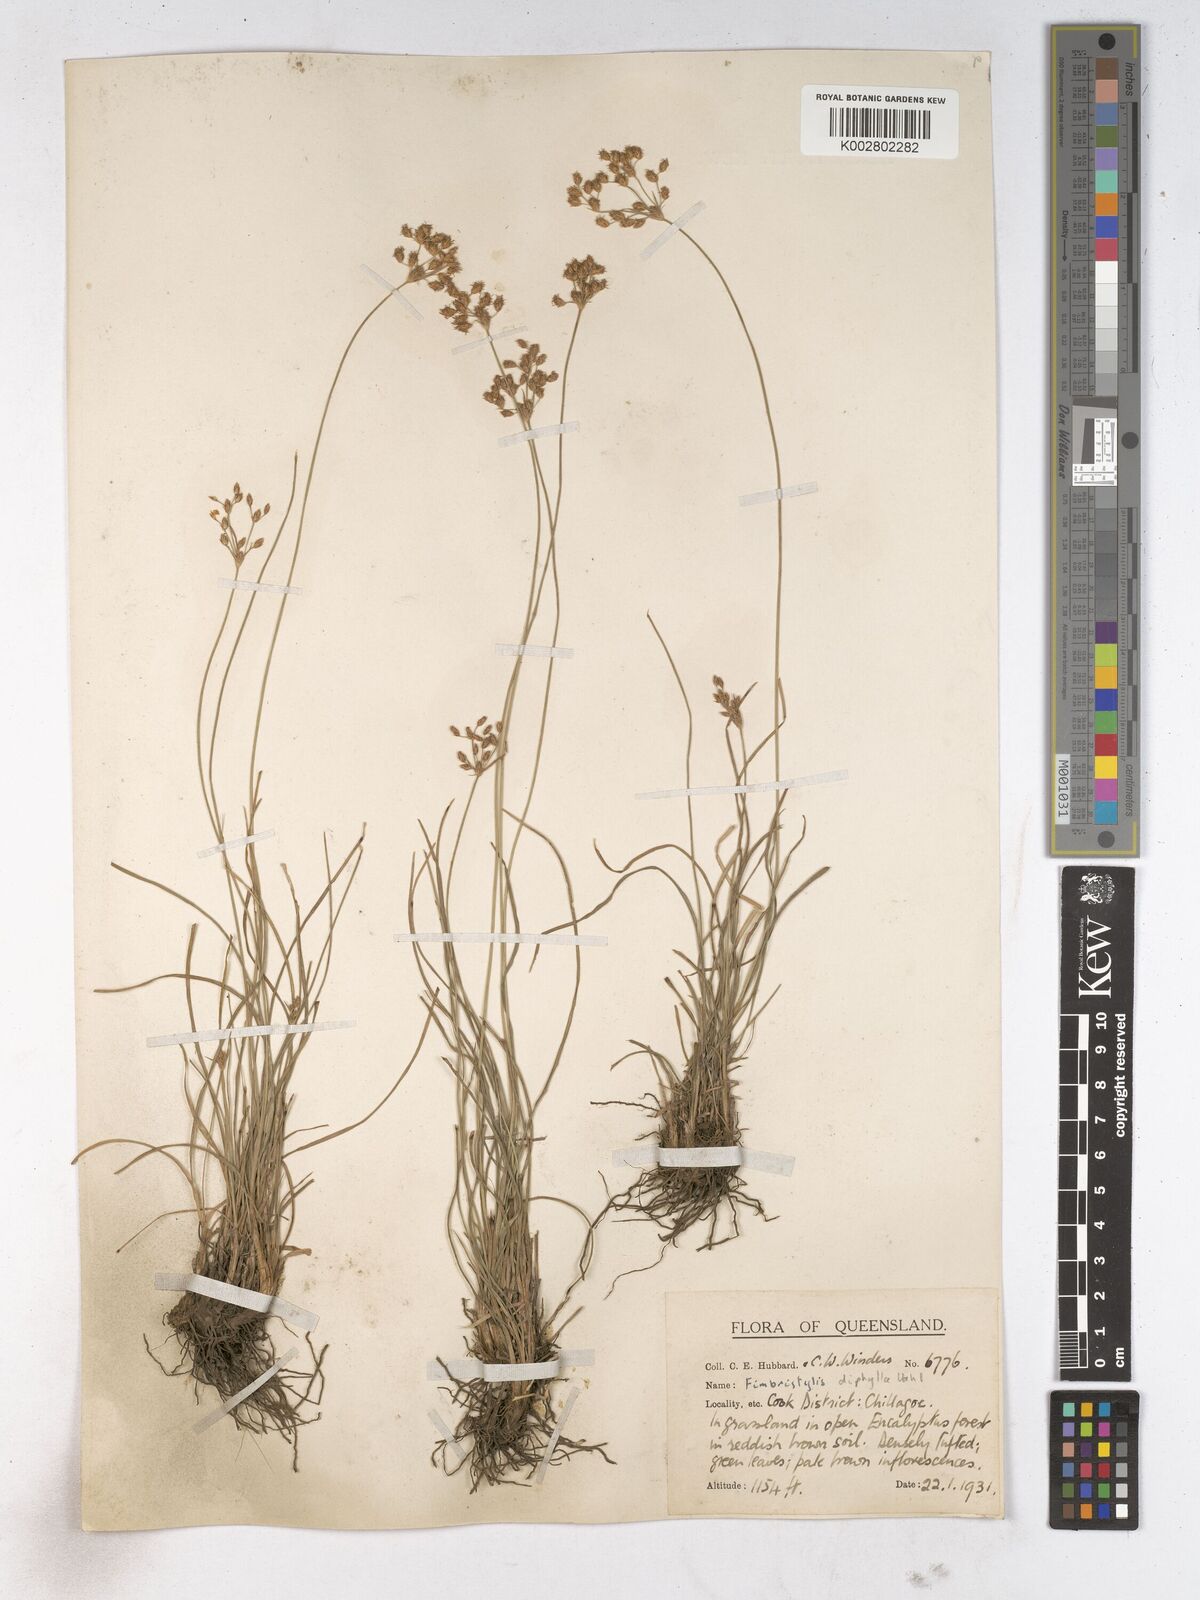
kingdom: Plantae
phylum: Tracheophyta
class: Liliopsida
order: Poales
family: Cyperaceae
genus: Fimbristylis
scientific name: Fimbristylis dichotoma
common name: Forked fimbry
